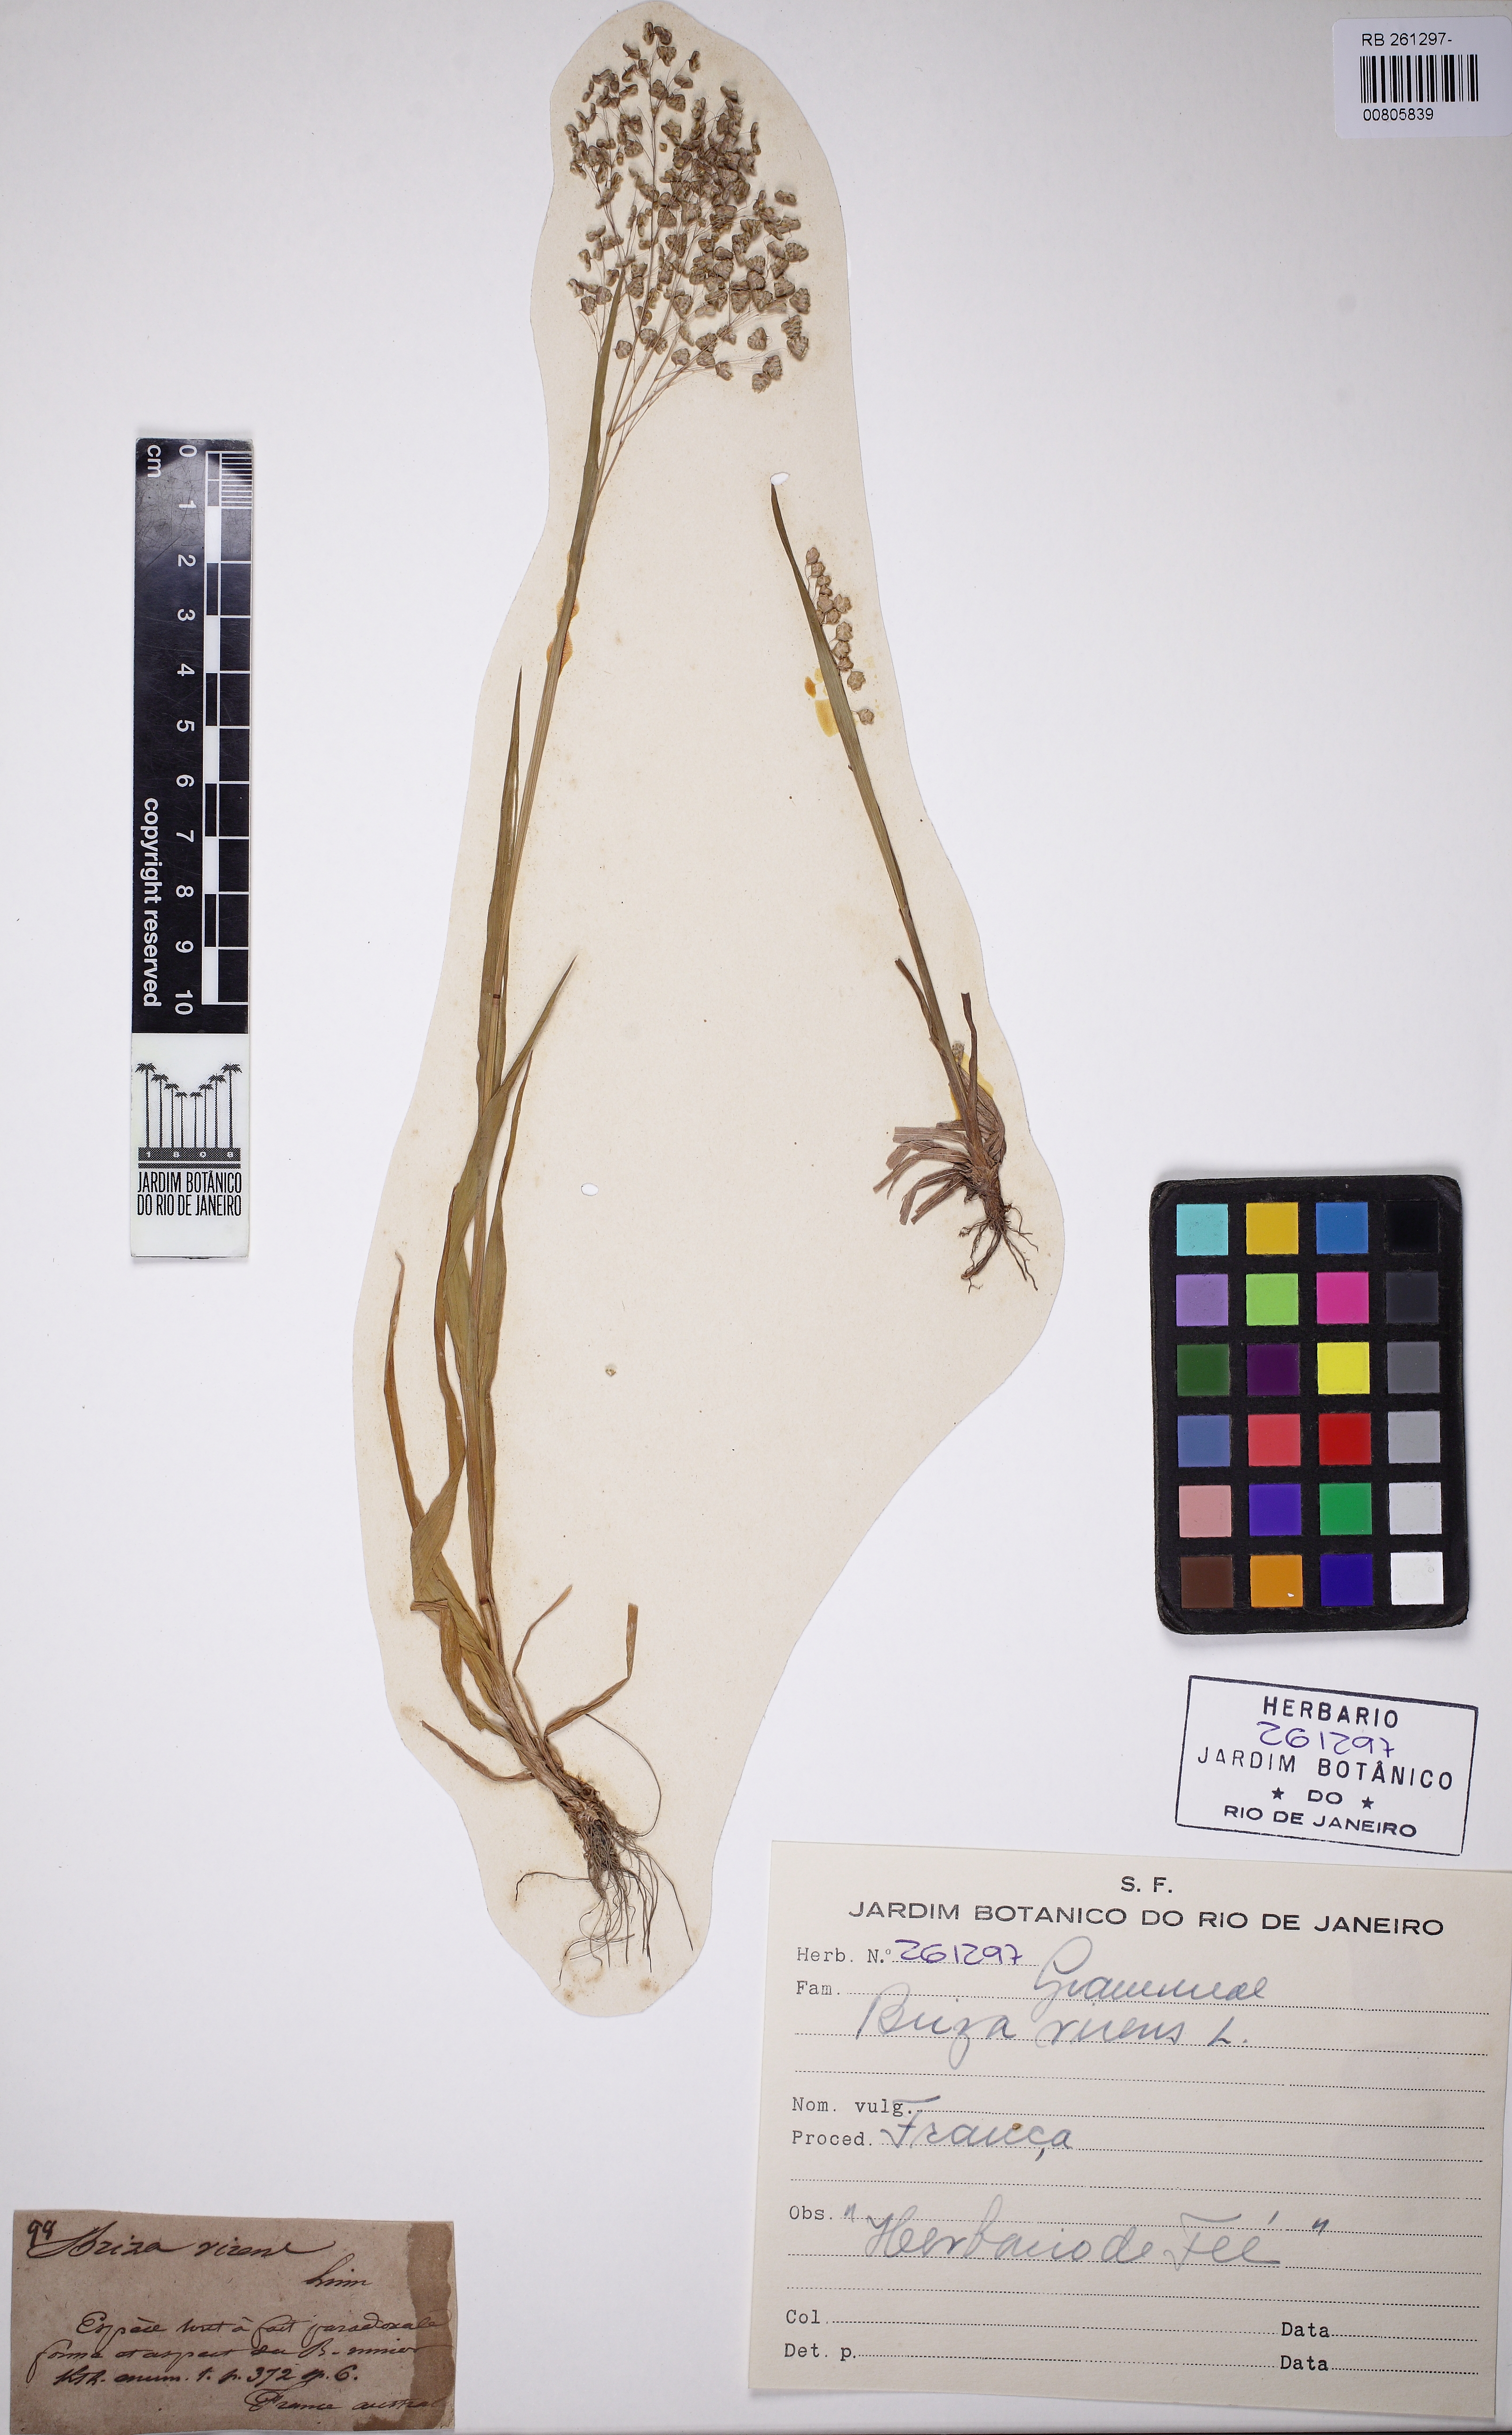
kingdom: Plantae
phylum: Tracheophyta
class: Liliopsida
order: Poales
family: Poaceae
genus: Poa
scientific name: Poa pratensis
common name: Kentucky bluegrass
